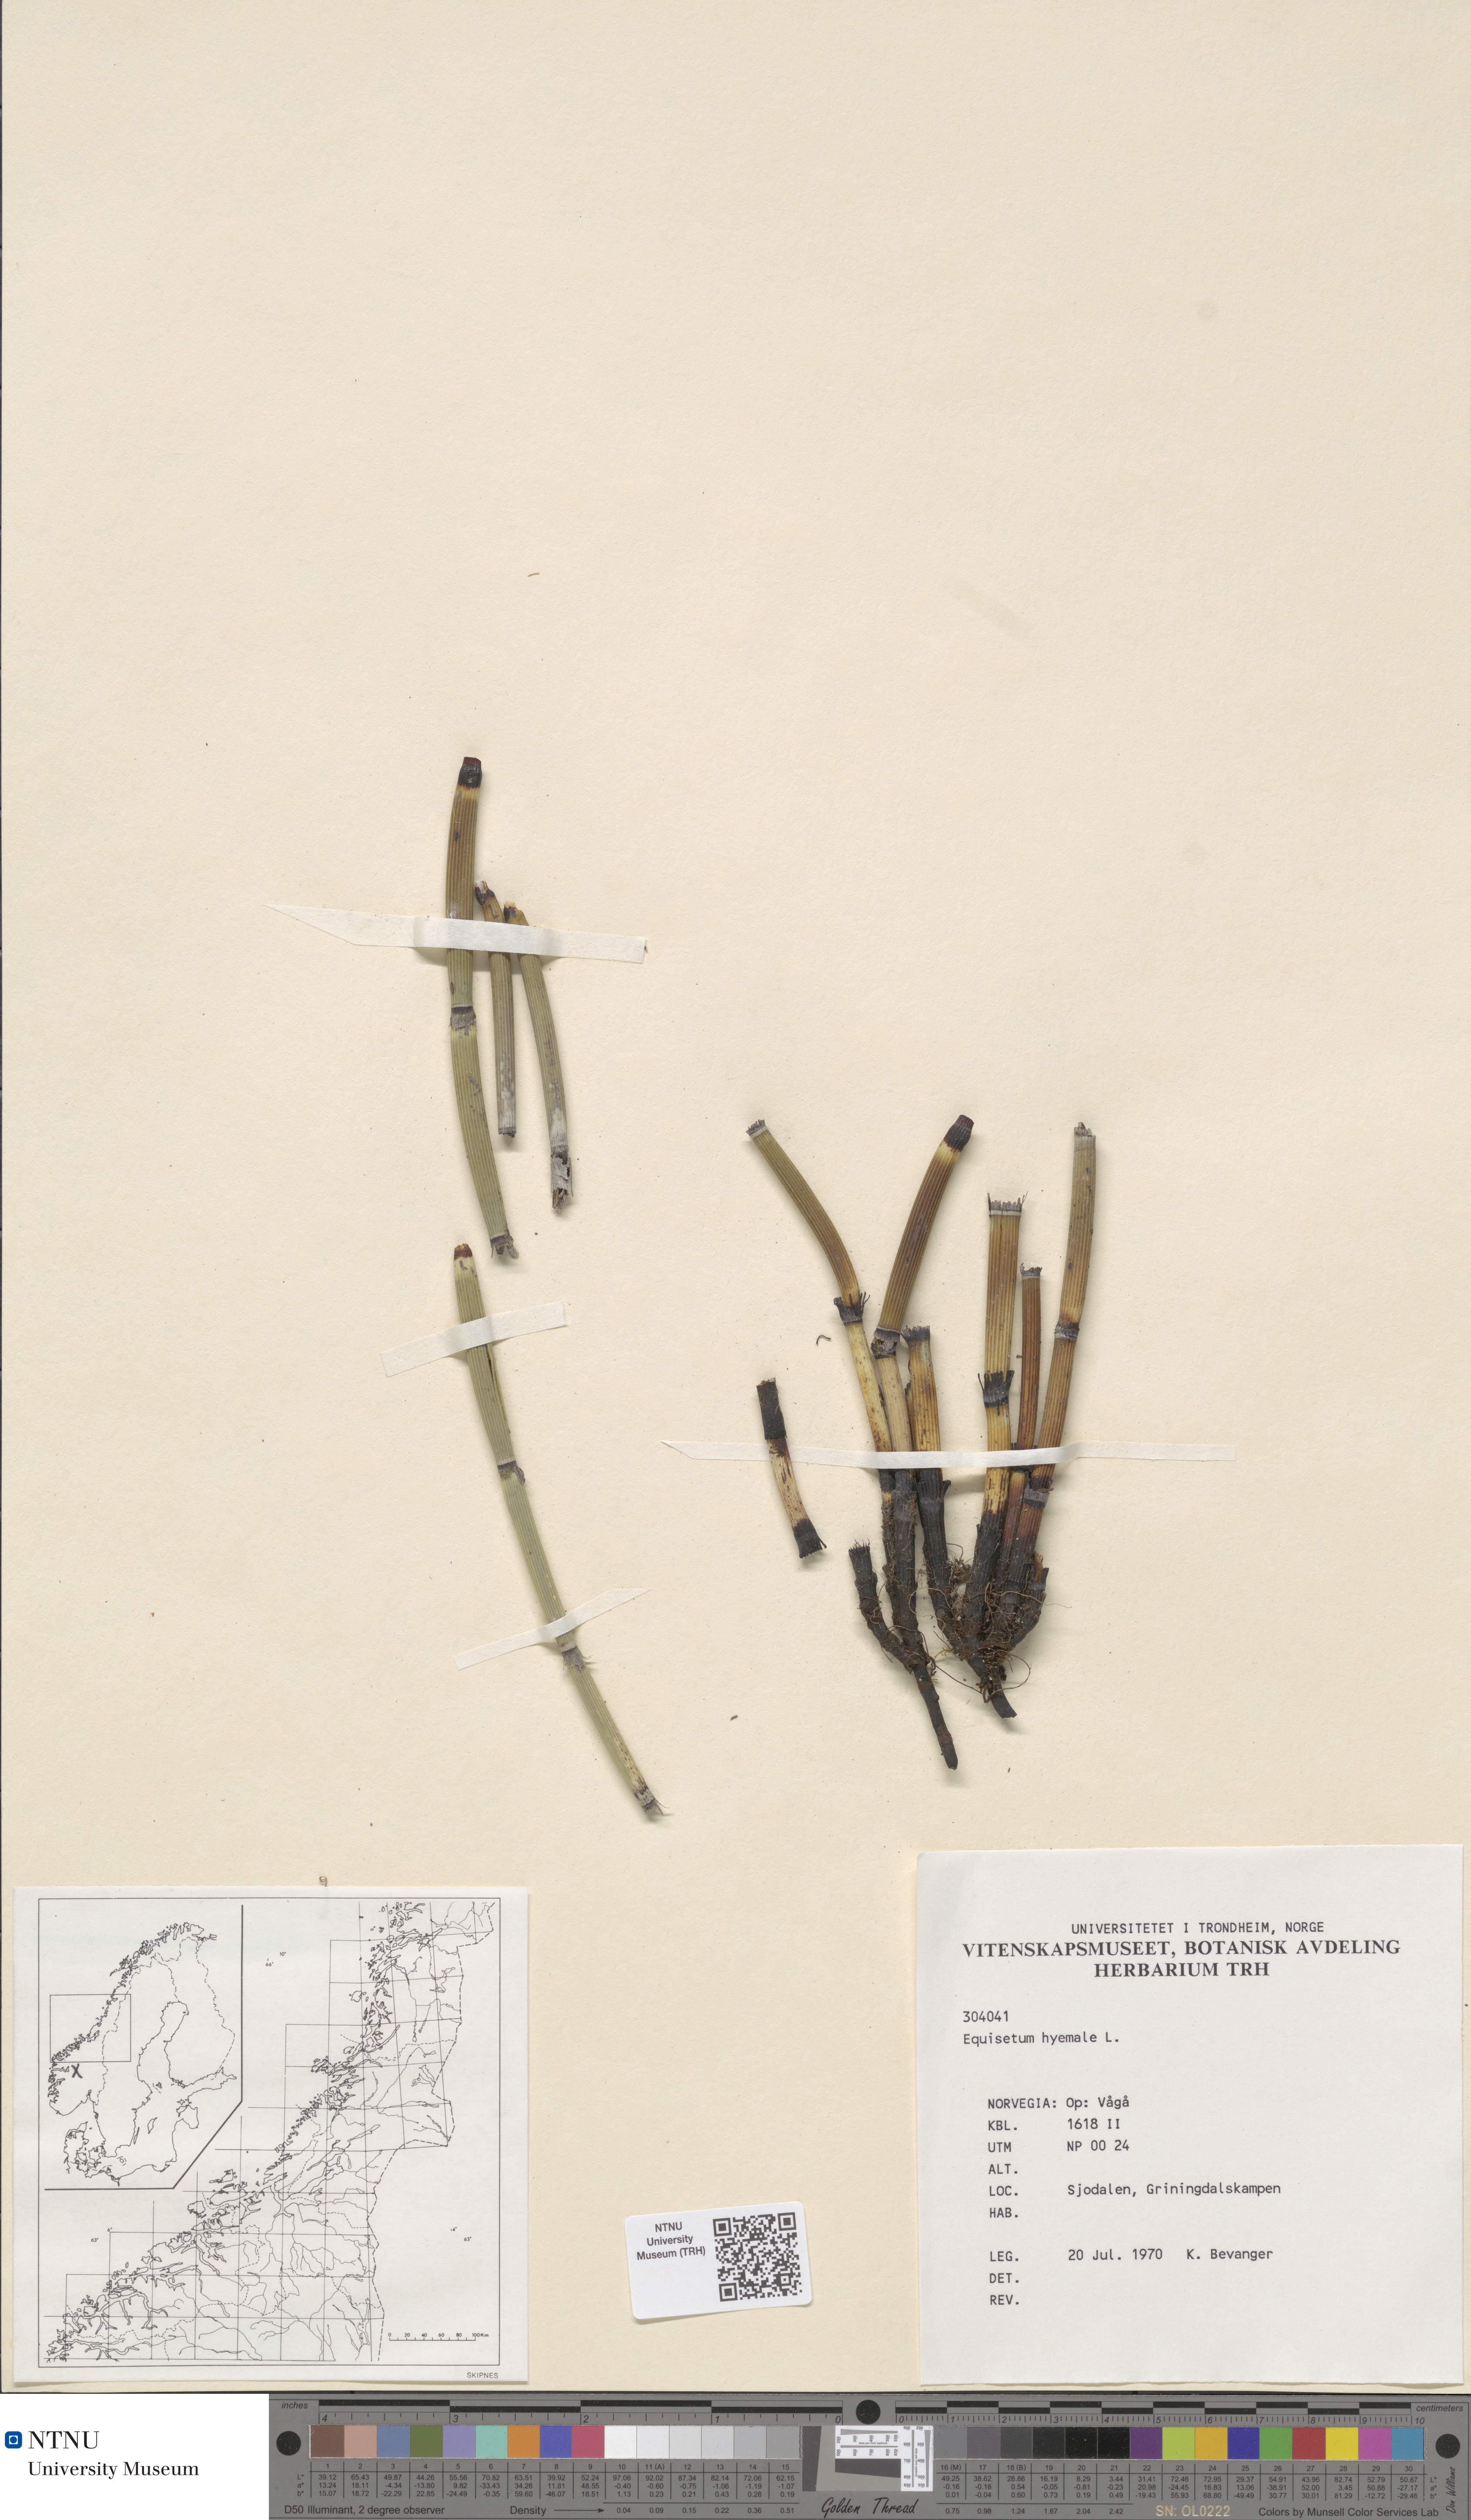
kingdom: Plantae
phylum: Tracheophyta
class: Polypodiopsida
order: Equisetales
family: Equisetaceae
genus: Equisetum
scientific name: Equisetum hyemale
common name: Rough horsetail
